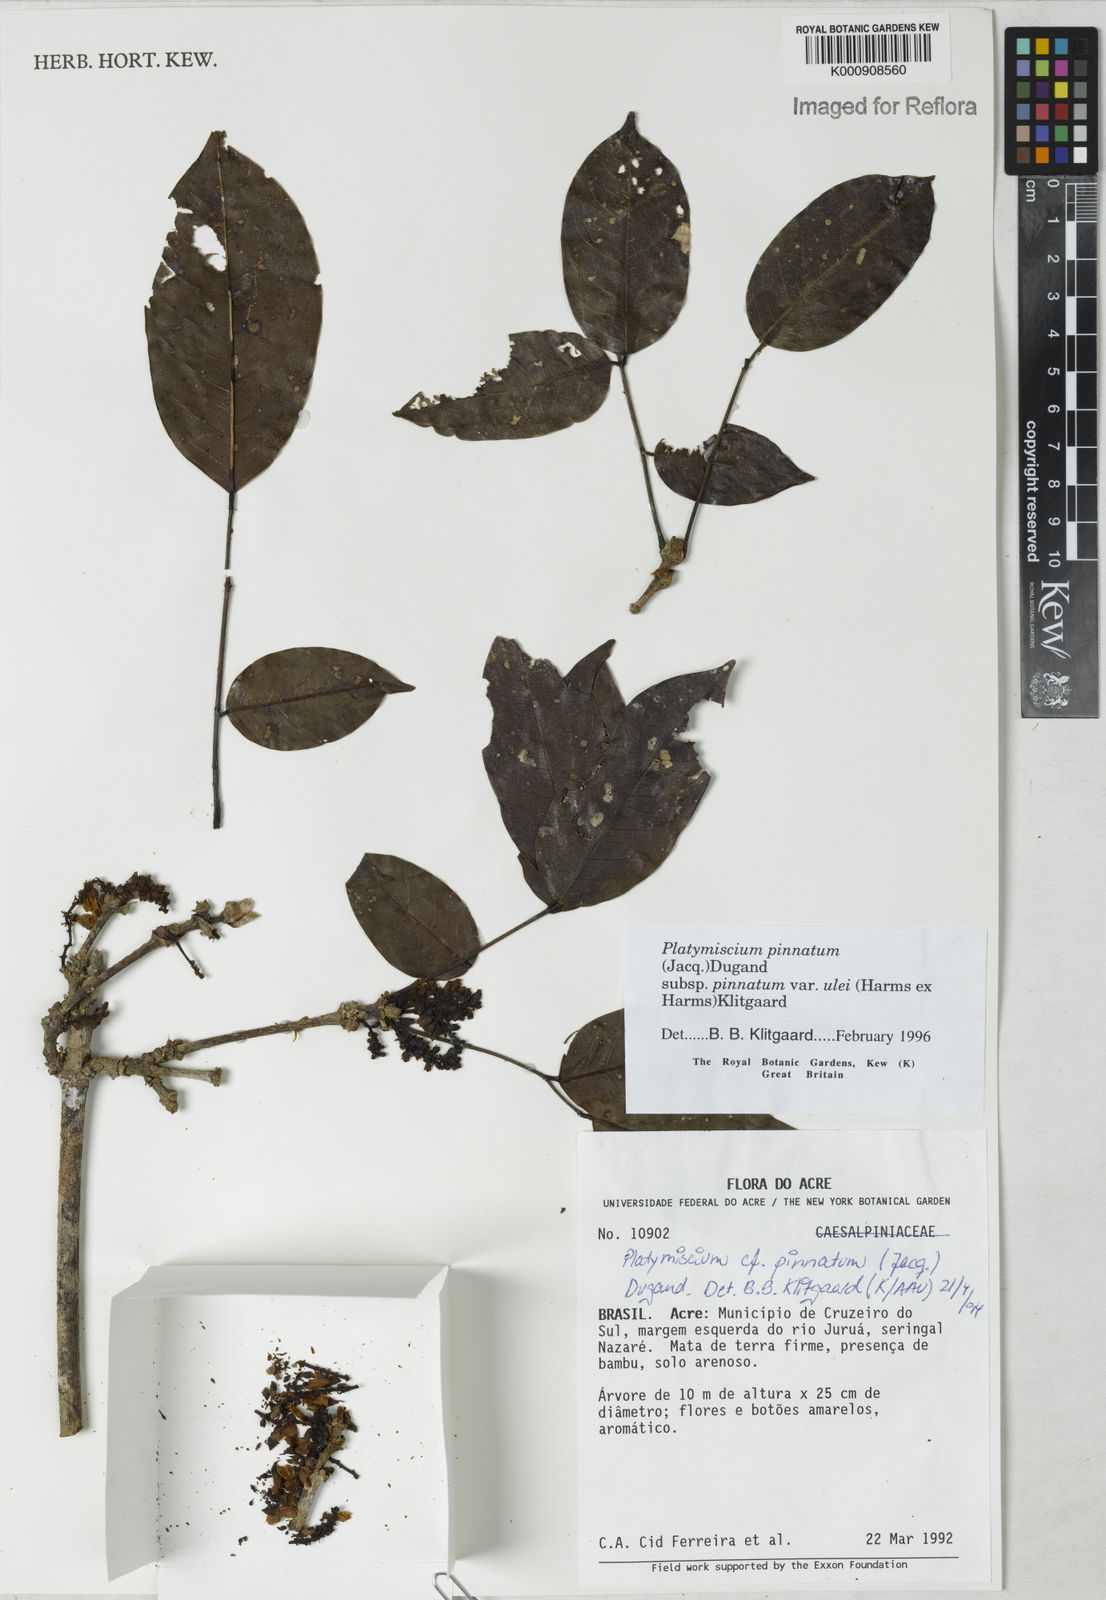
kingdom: Plantae
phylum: Tracheophyta
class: Magnoliopsida
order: Fabales
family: Fabaceae
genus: Platymiscium
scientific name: Platymiscium pinnatum
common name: Panama redwood
